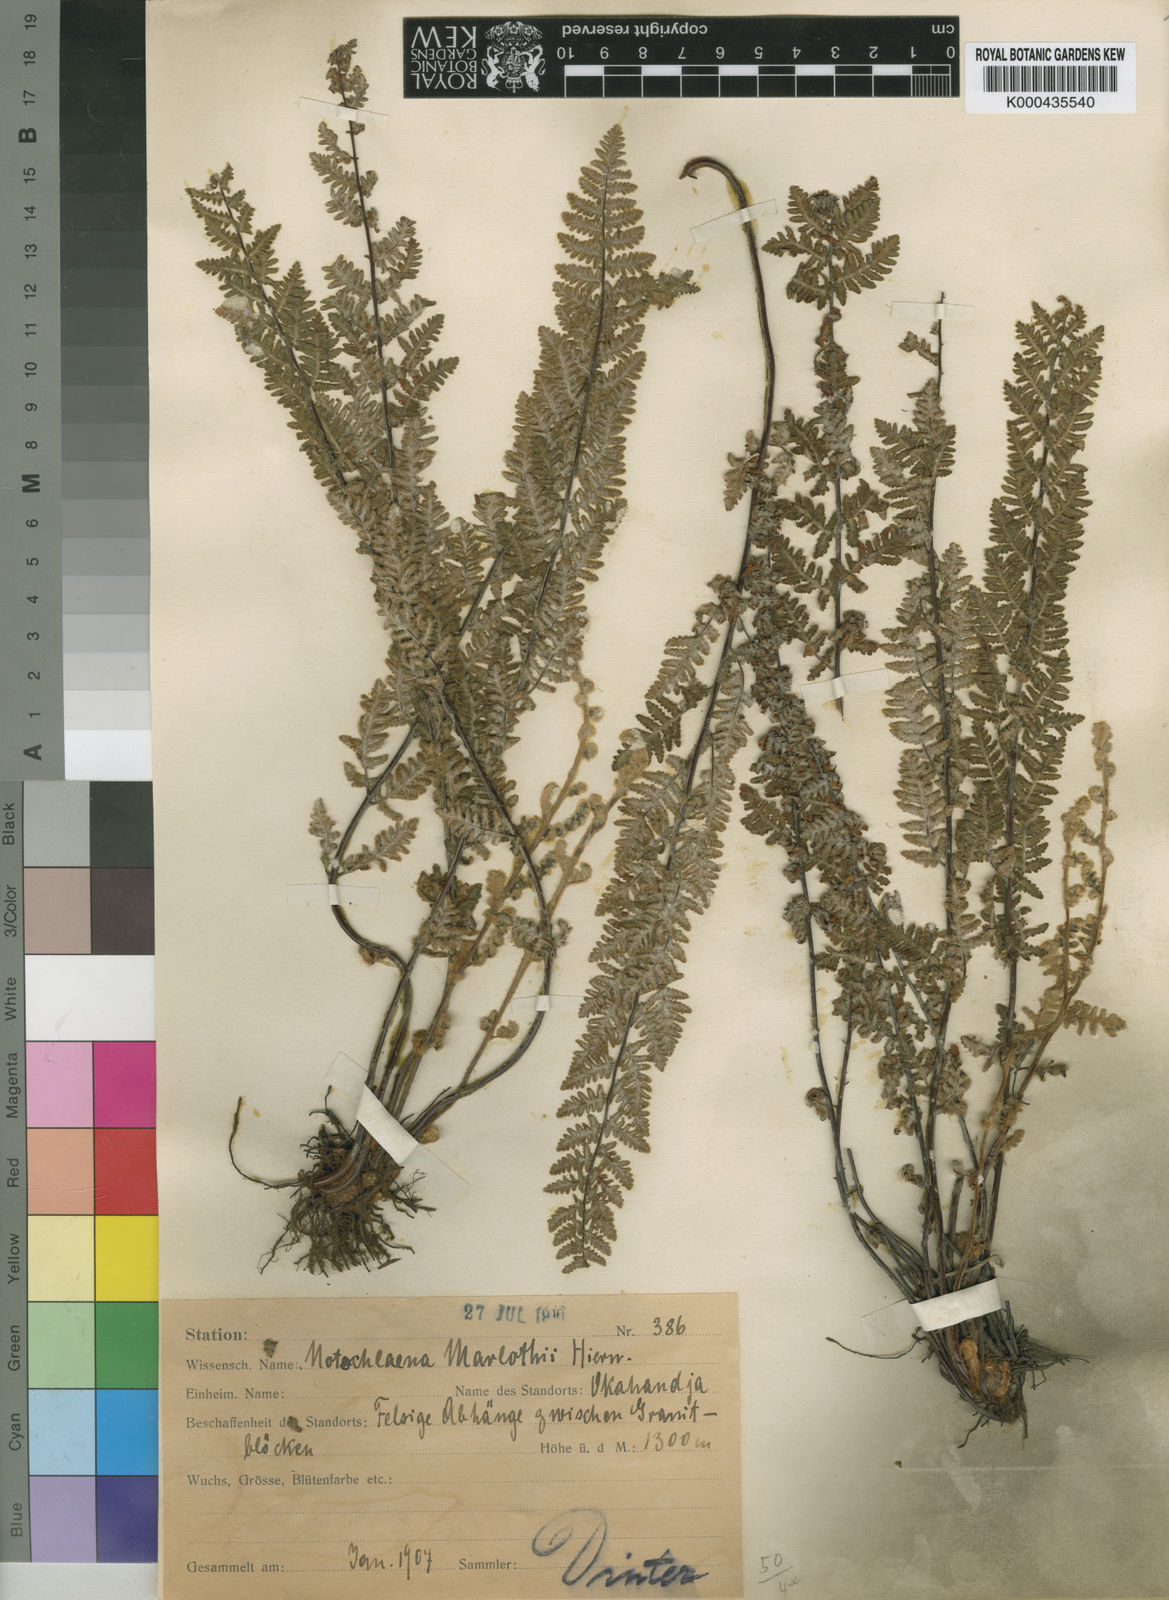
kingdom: Plantae
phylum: Tracheophyta
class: Polypodiopsida
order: Polypodiales
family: Pteridaceae
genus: Cheilanthes
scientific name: Cheilanthes
